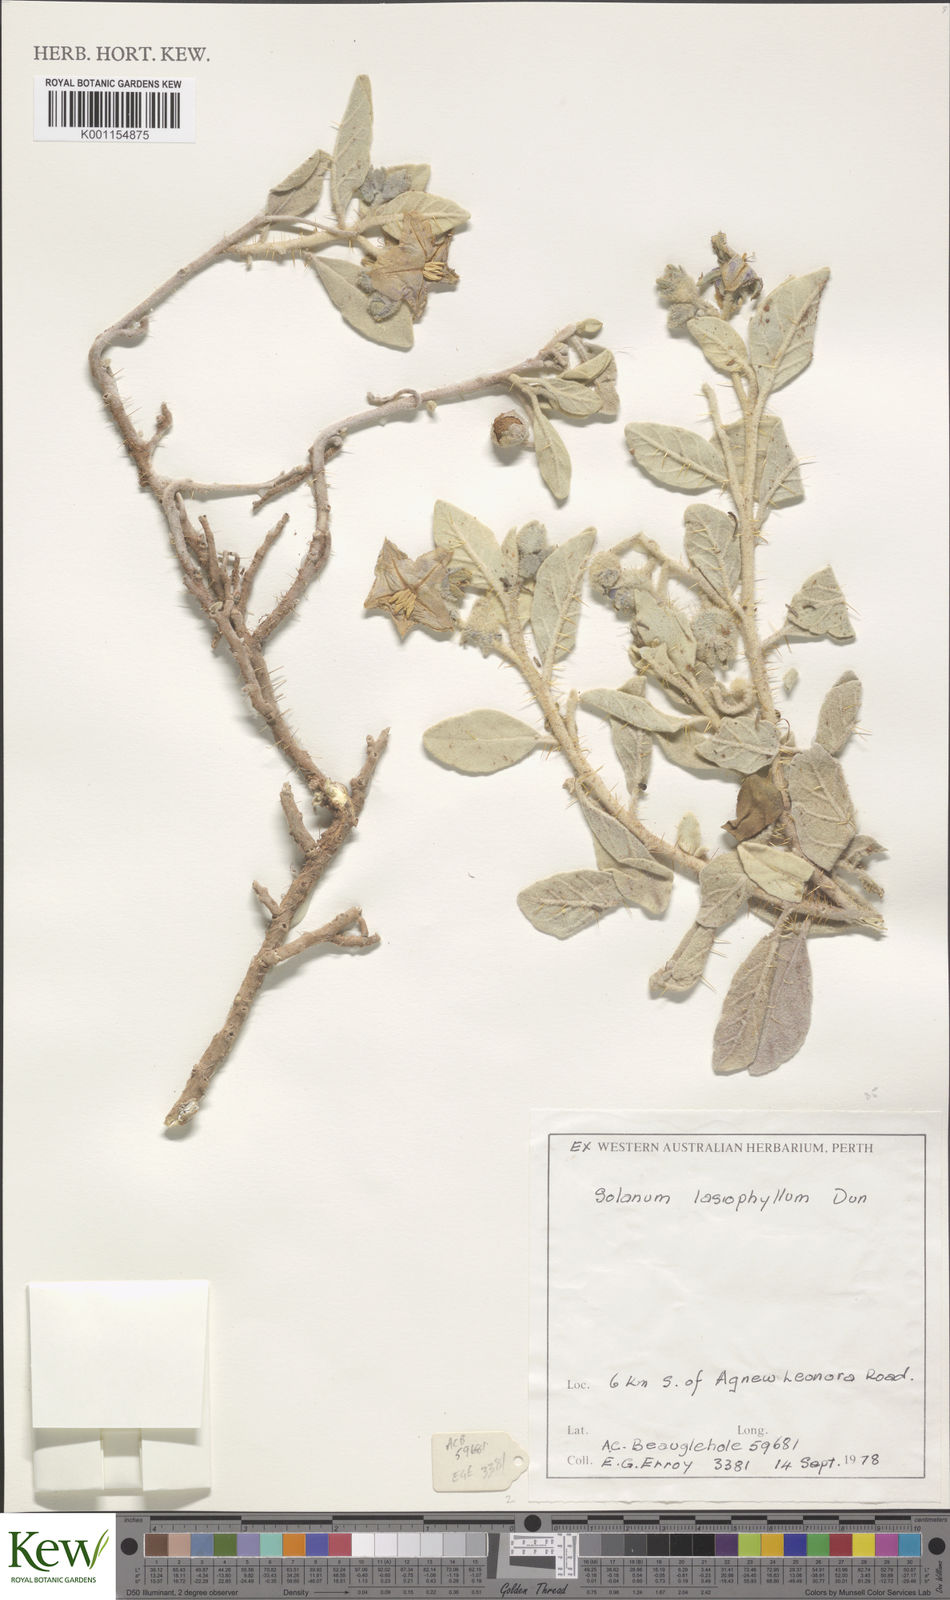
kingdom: Plantae
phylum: Tracheophyta
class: Magnoliopsida
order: Solanales
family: Solanaceae
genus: Solanum
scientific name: Solanum lasiophyllum
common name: Flannelbush
